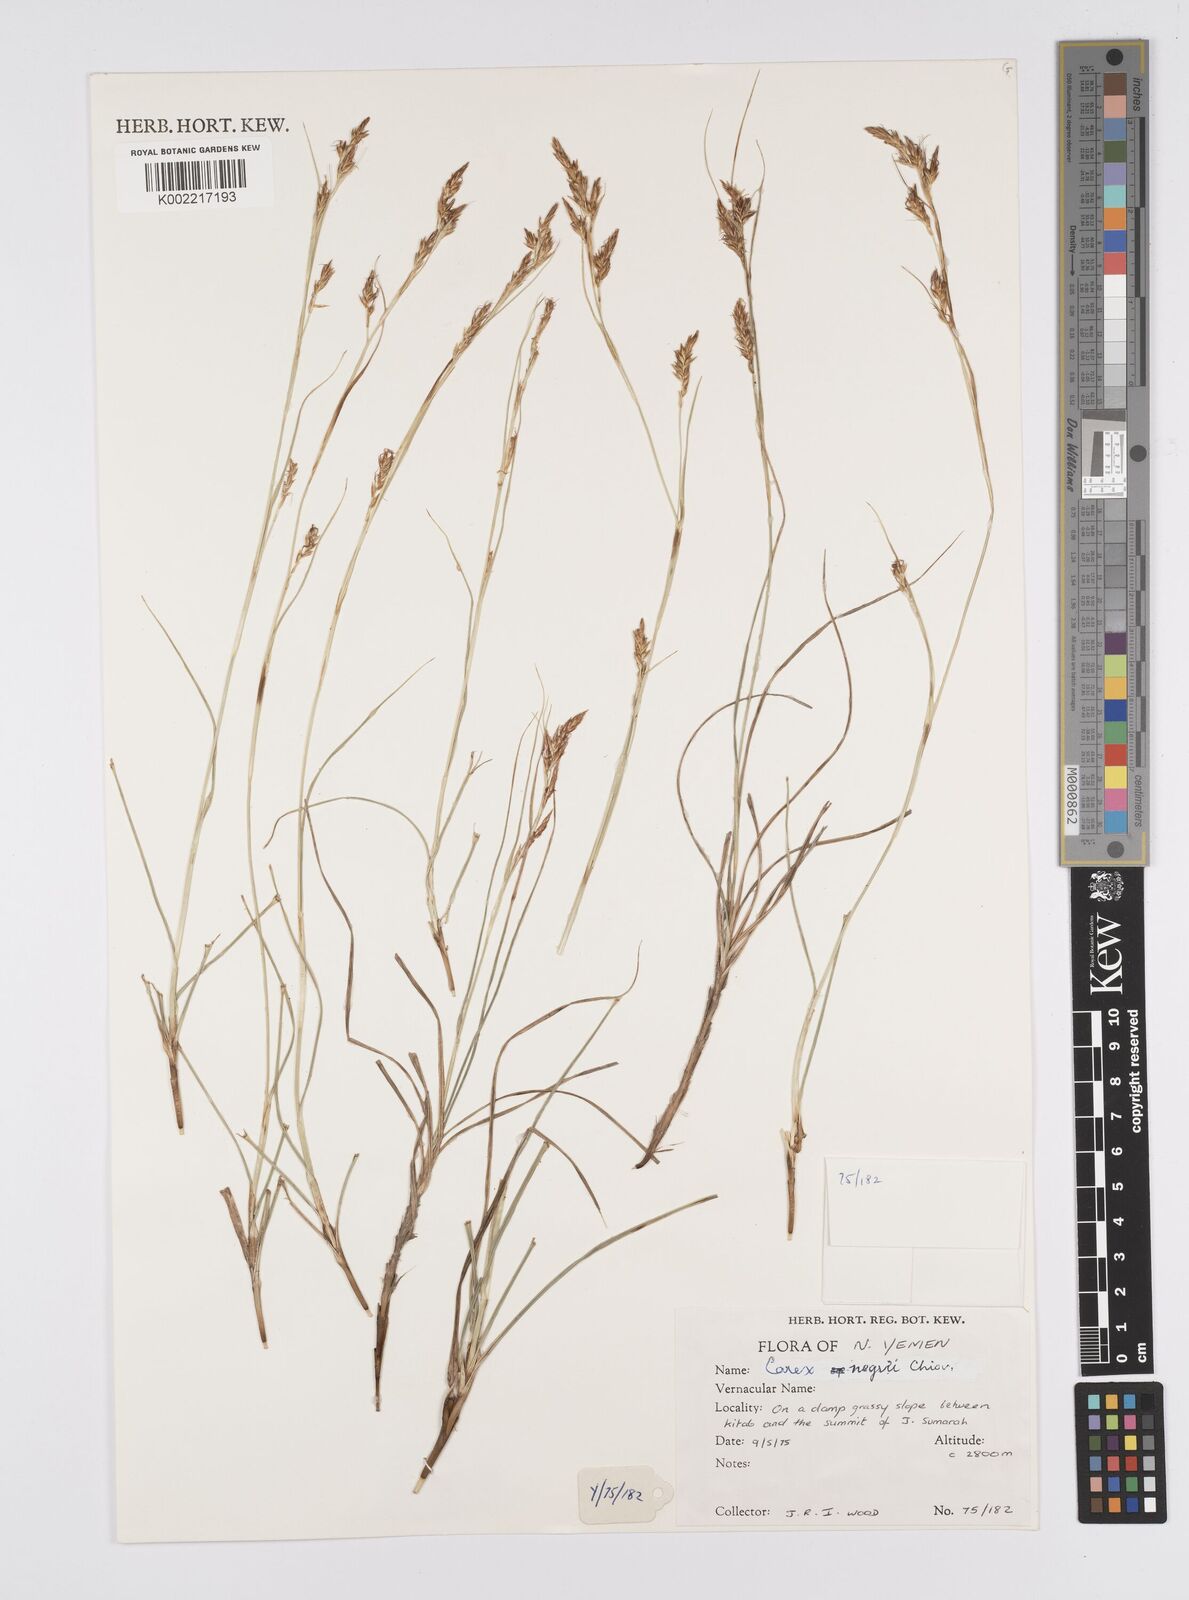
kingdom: Plantae
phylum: Tracheophyta
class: Liliopsida
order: Poales
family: Cyperaceae
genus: Carex
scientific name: Carex negrii
